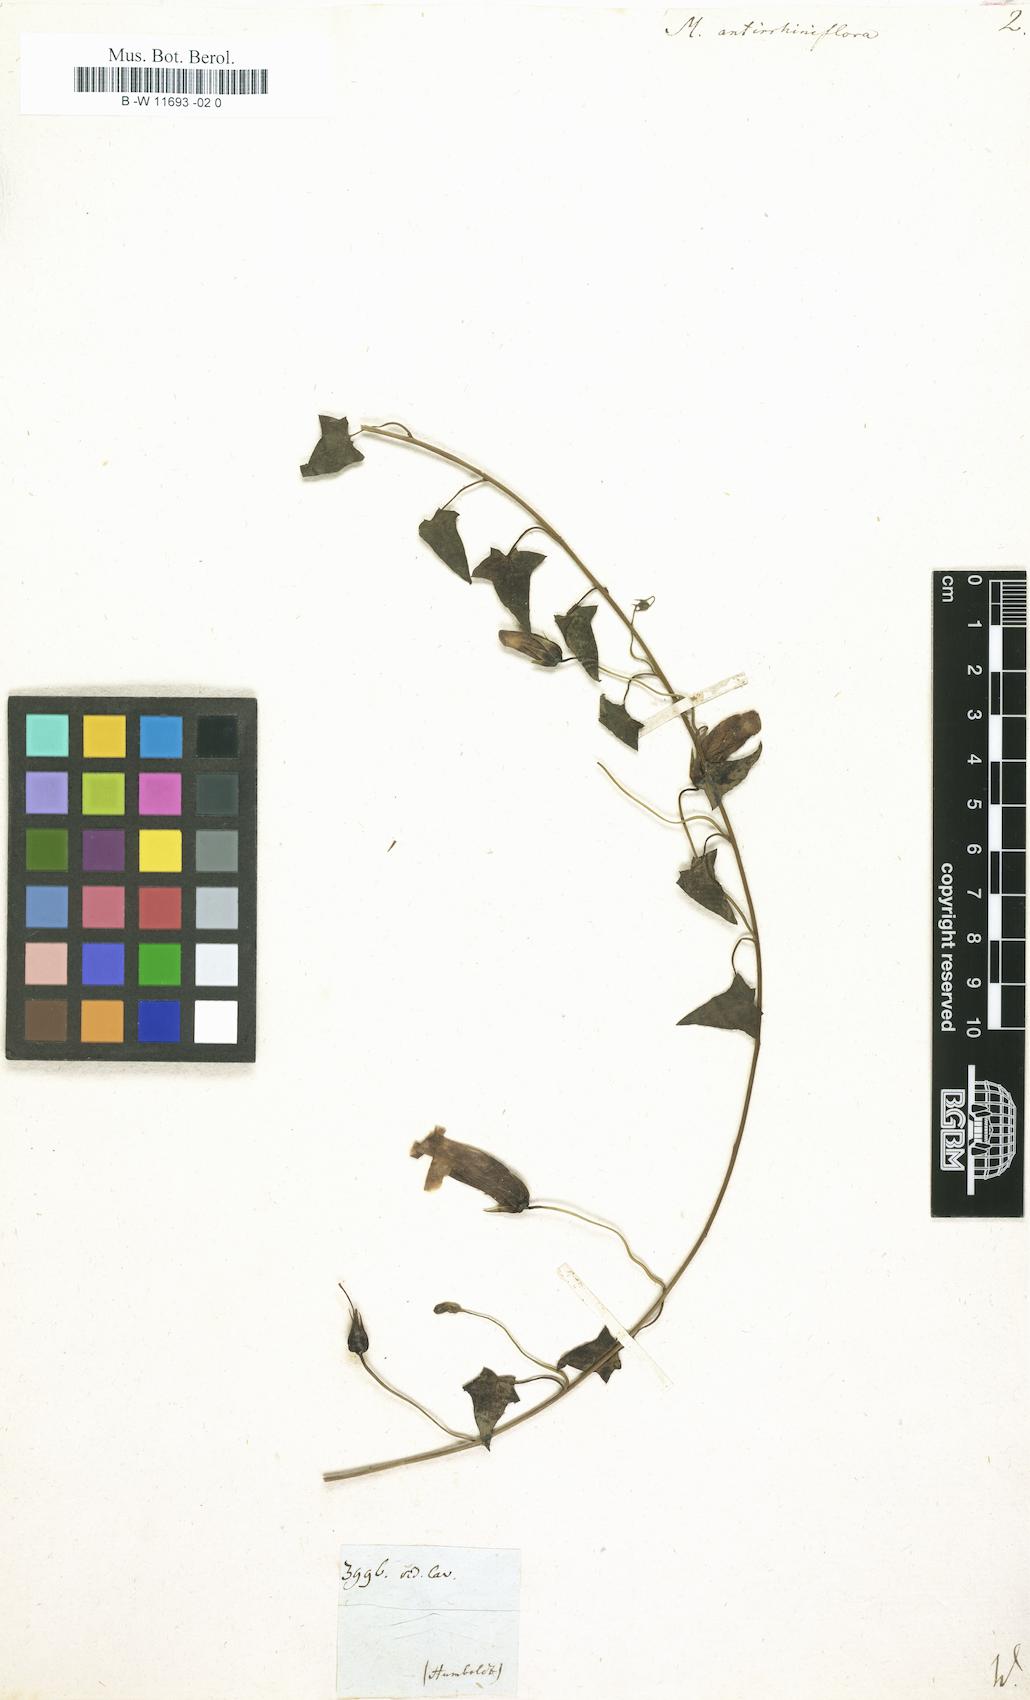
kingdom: Plantae
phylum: Tracheophyta
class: Magnoliopsida
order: Lamiales
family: Plantaginaceae
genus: Maurandella
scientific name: Maurandella antirrhiniflora
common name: Violet twining-snapdragon
